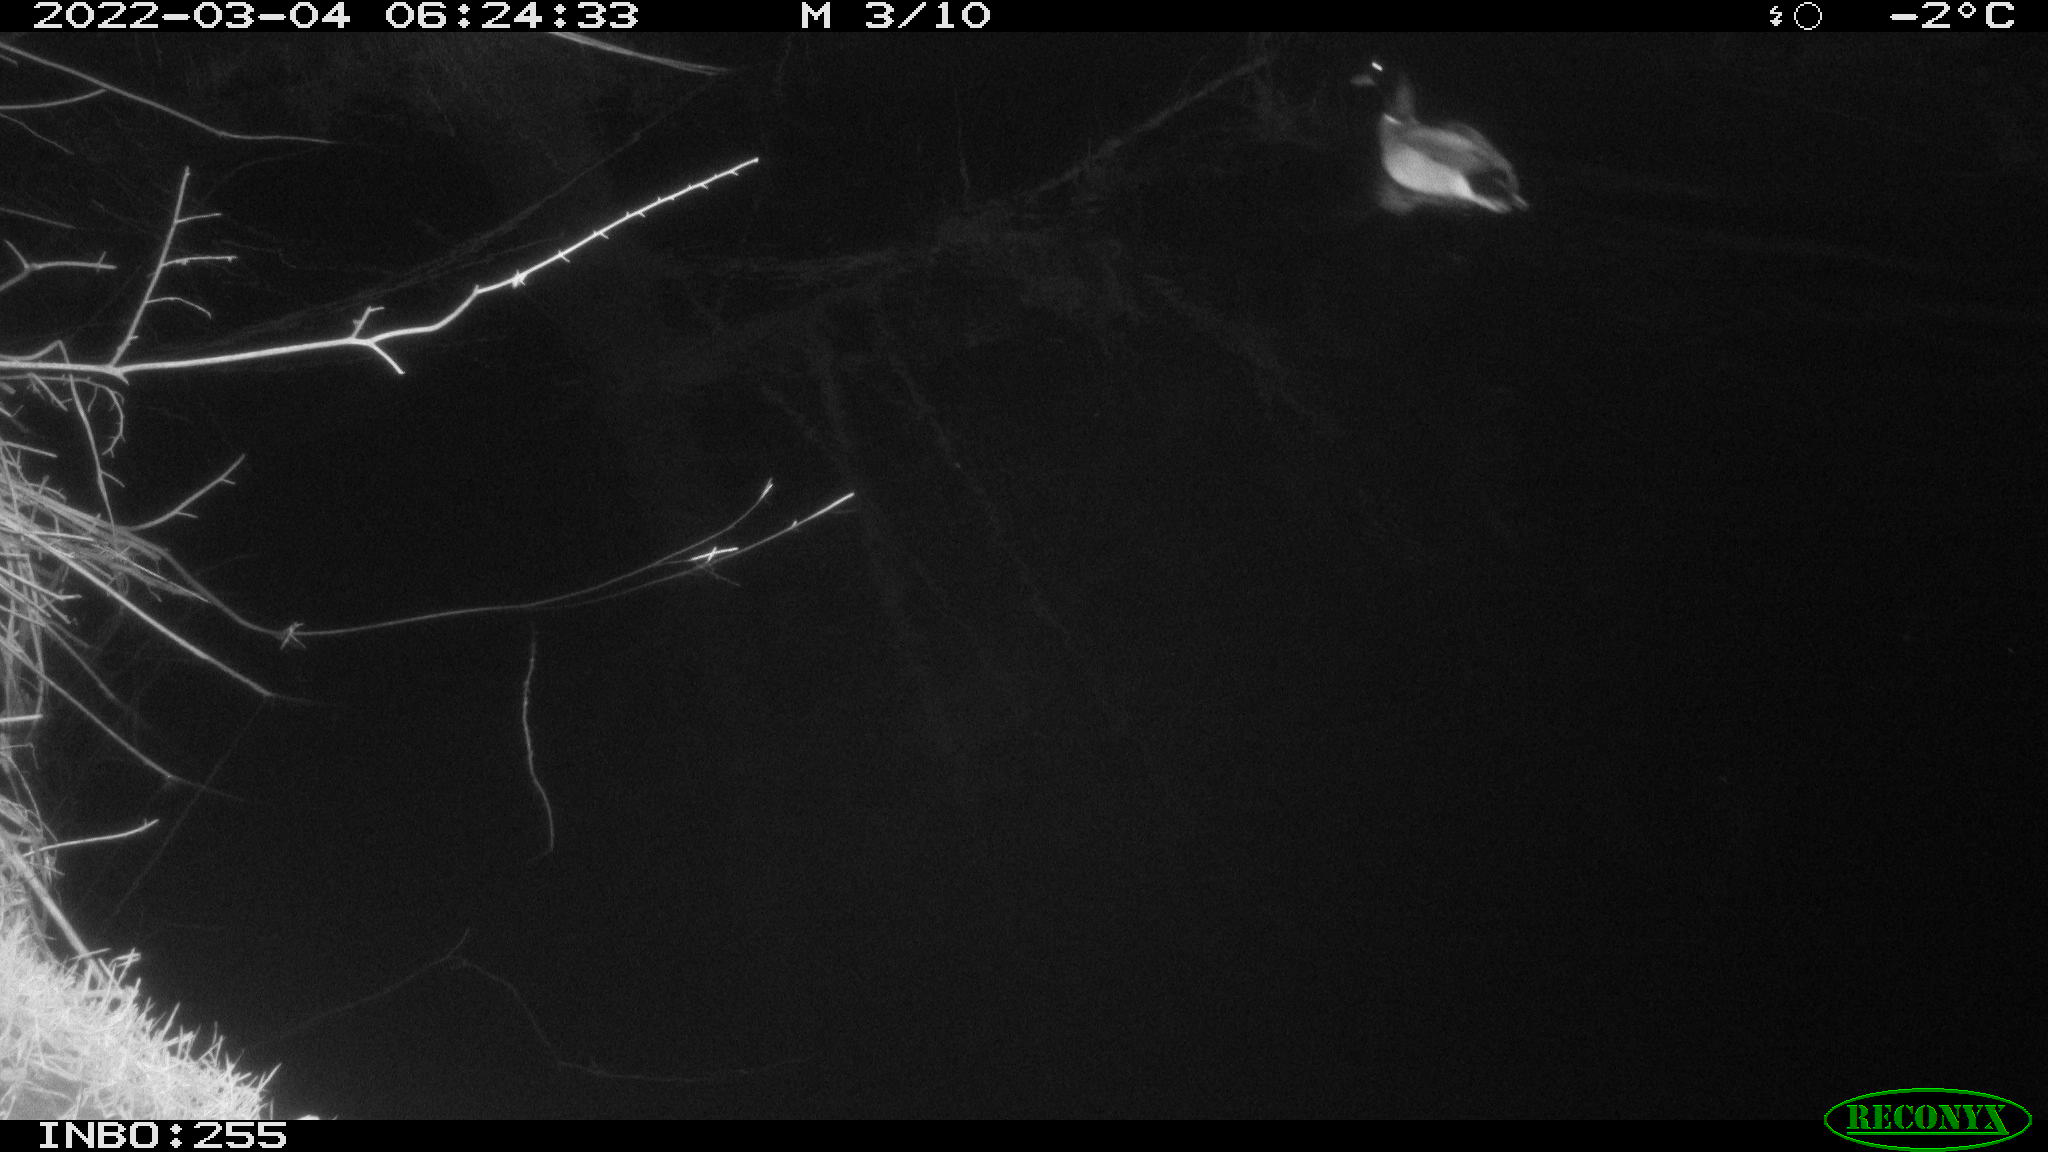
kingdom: Animalia
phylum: Chordata
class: Aves
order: Anseriformes
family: Anatidae
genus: Anas
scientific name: Anas platyrhynchos
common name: Mallard
